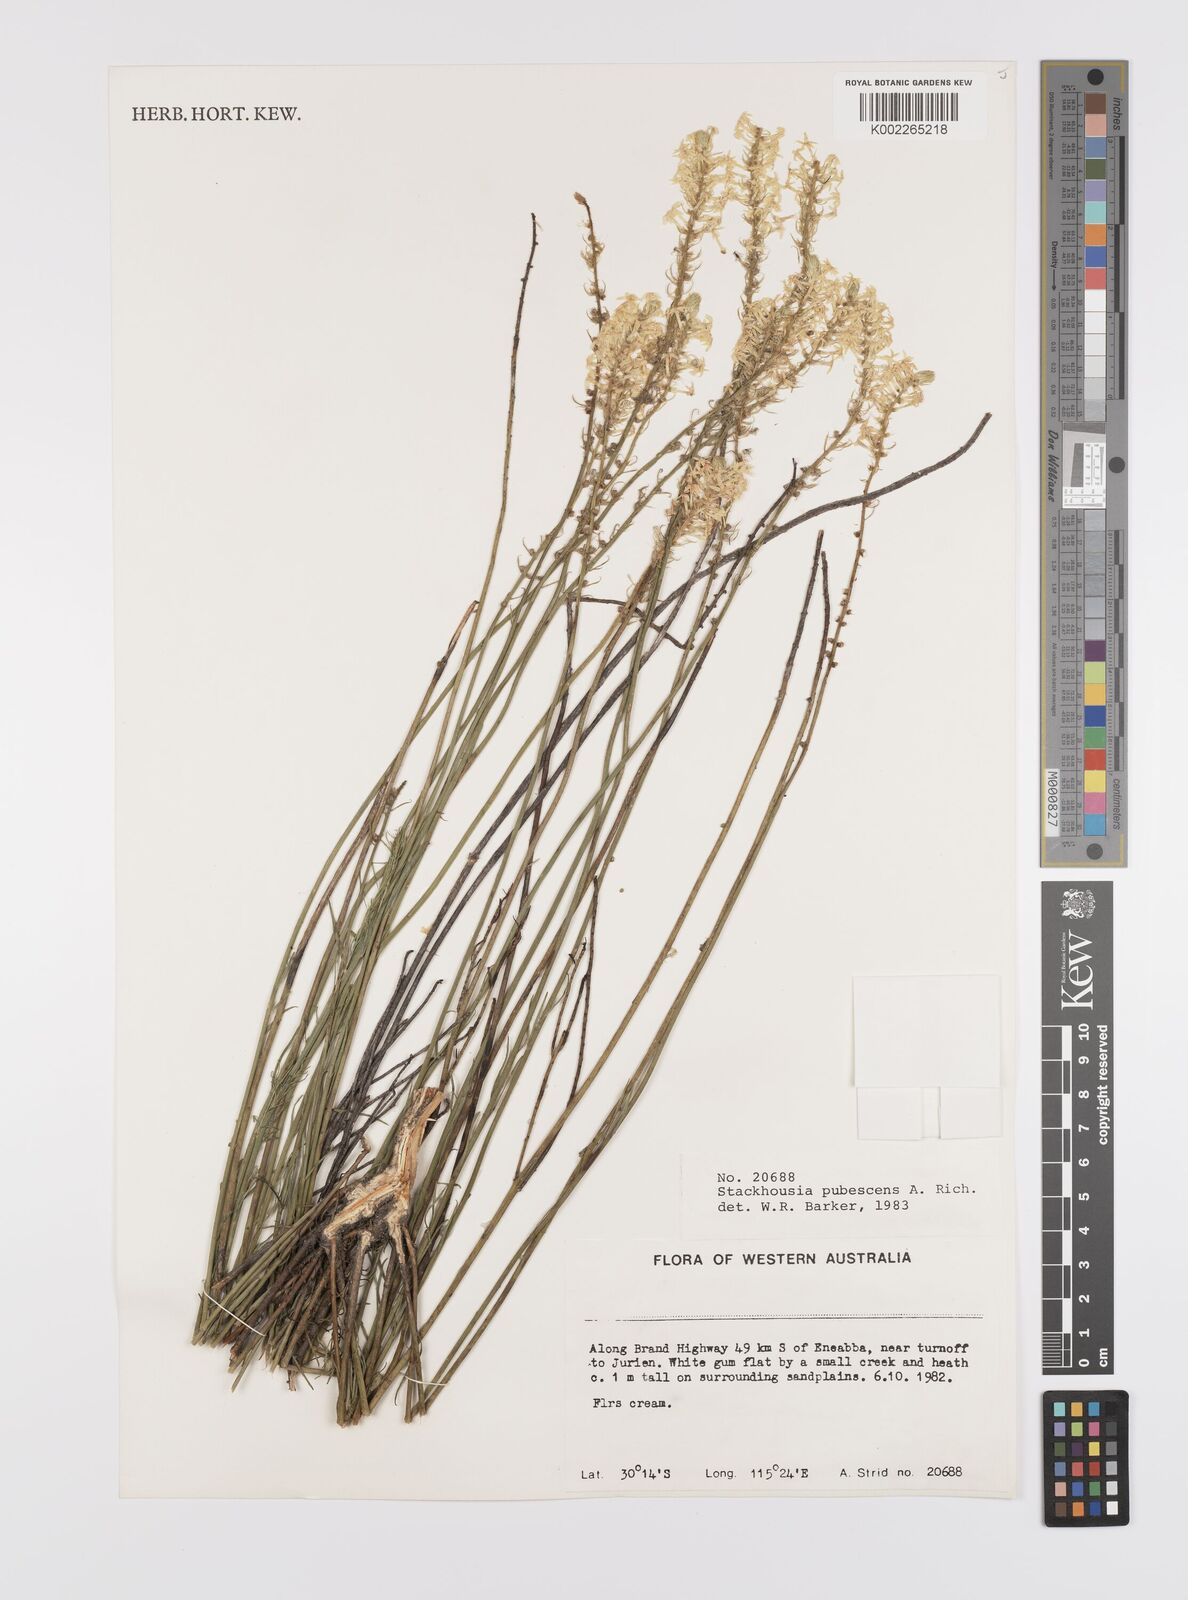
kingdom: Plantae
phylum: Tracheophyta
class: Magnoliopsida
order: Celastrales
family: Celastraceae
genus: Stackhousia
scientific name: Stackhousia monogyna
